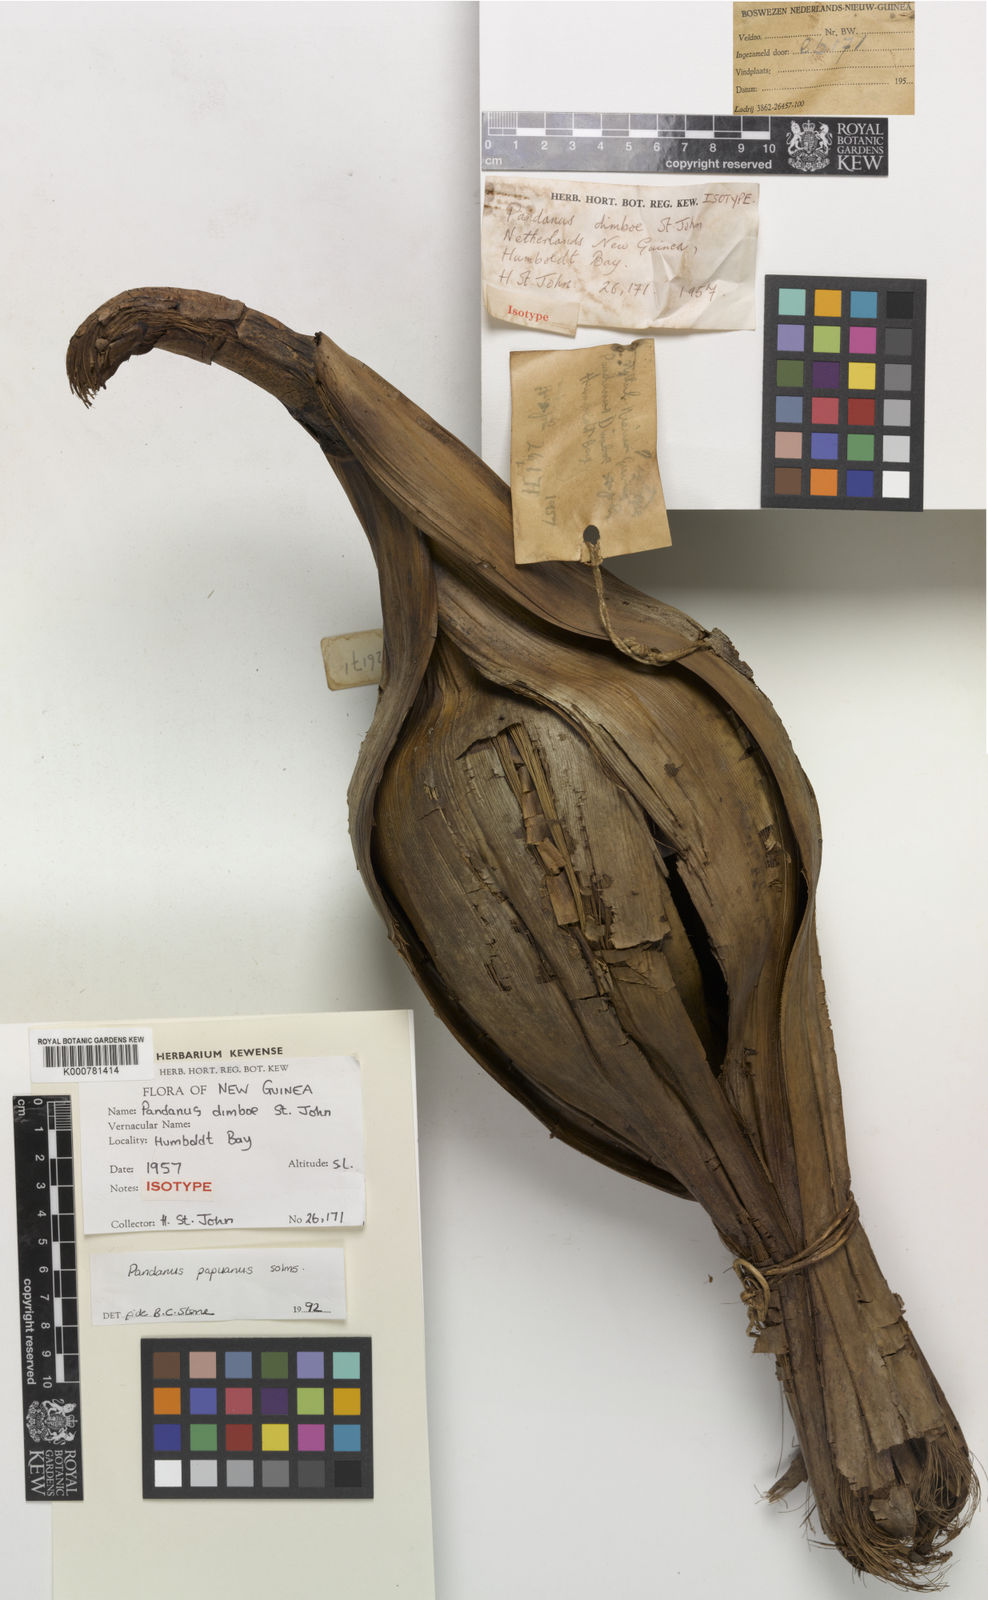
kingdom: Plantae
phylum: Tracheophyta
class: Liliopsida
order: Pandanales
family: Pandanaceae
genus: Pandanus
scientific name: Pandanus papuanus
